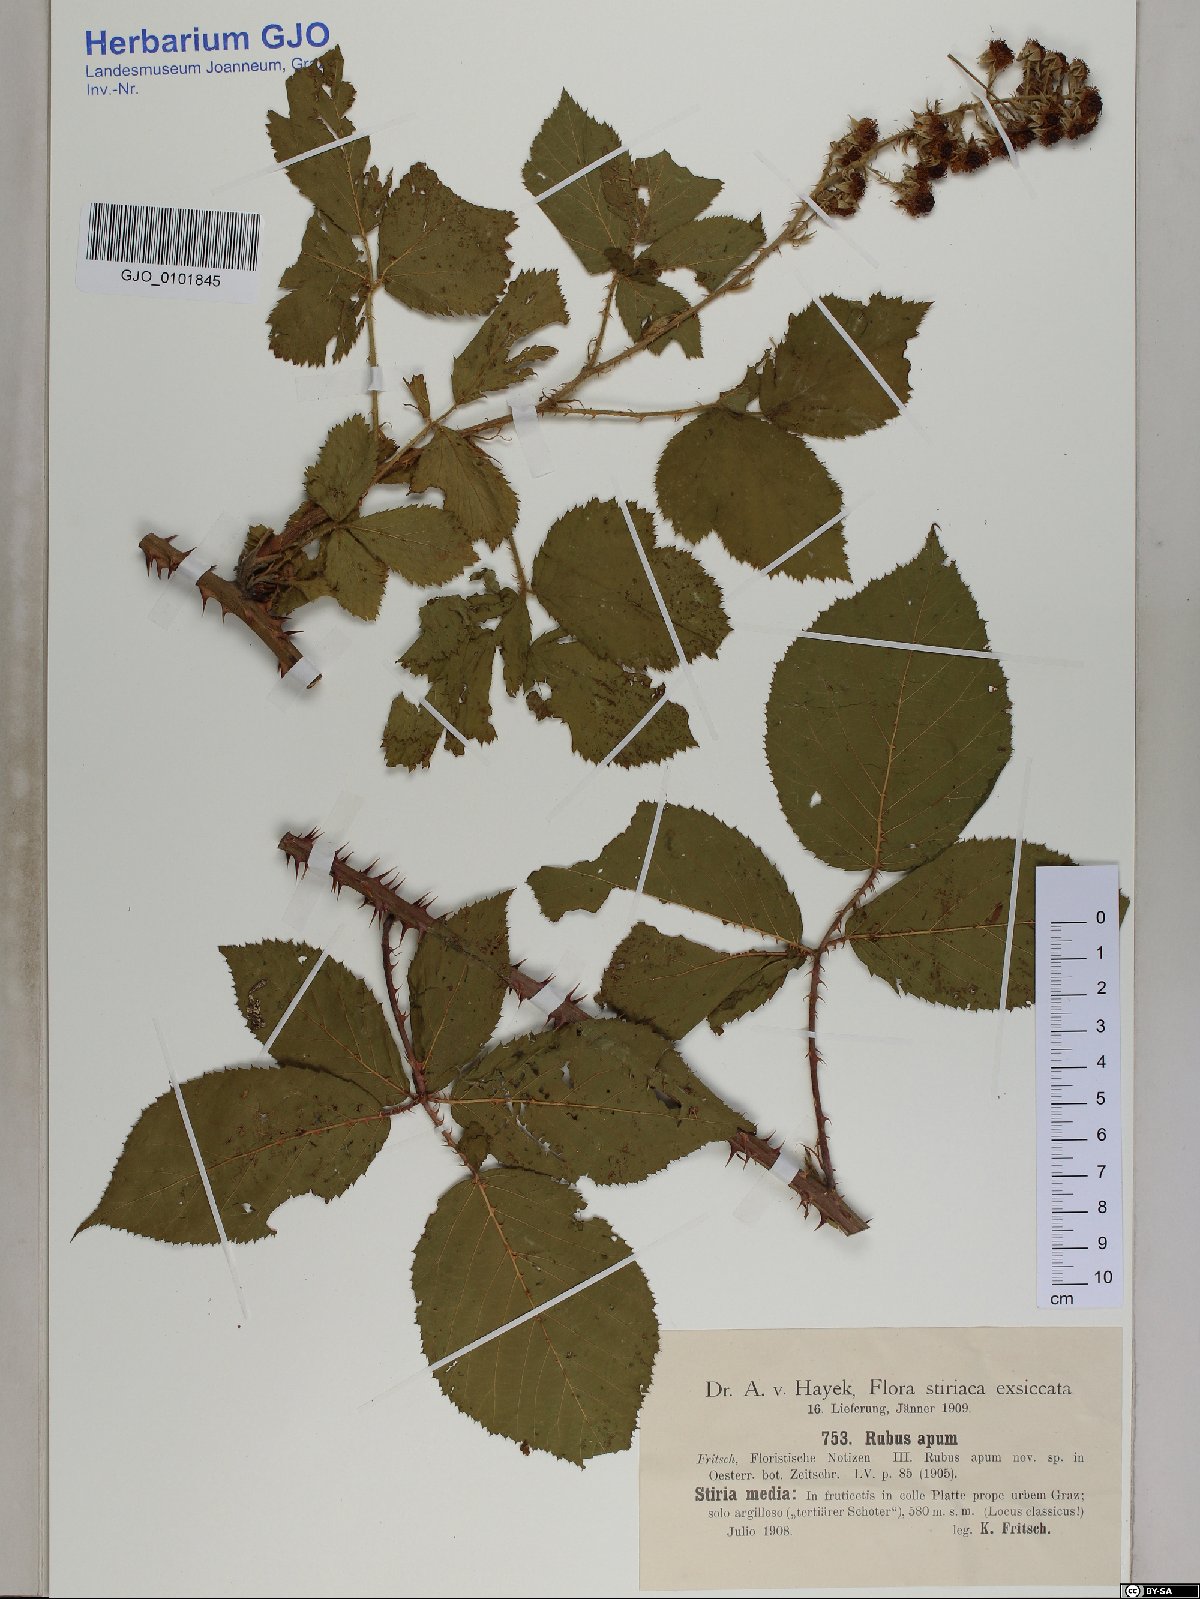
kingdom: Plantae
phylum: Tracheophyta
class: Magnoliopsida
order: Rosales
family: Rosaceae
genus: Rubus
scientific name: Rubus ferox
